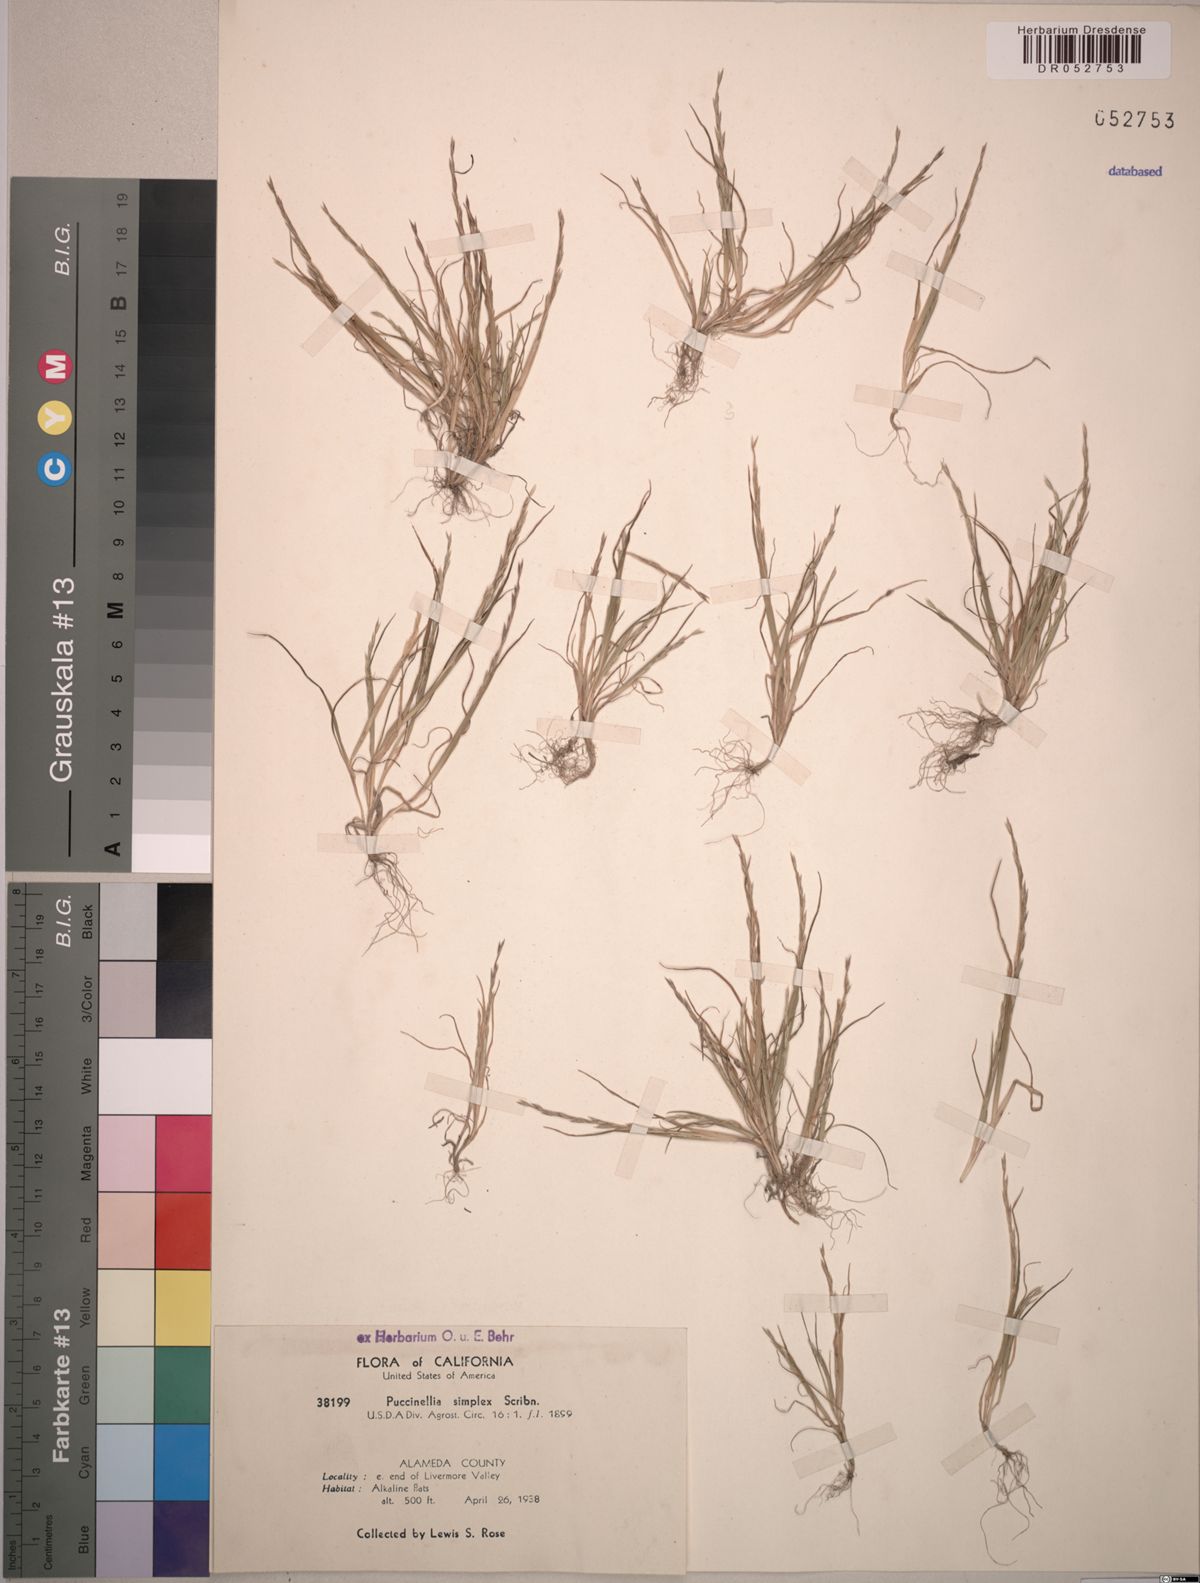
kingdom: Plantae
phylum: Tracheophyta
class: Liliopsida
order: Poales
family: Poaceae
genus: Puccinellia
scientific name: Puccinellia simplex
